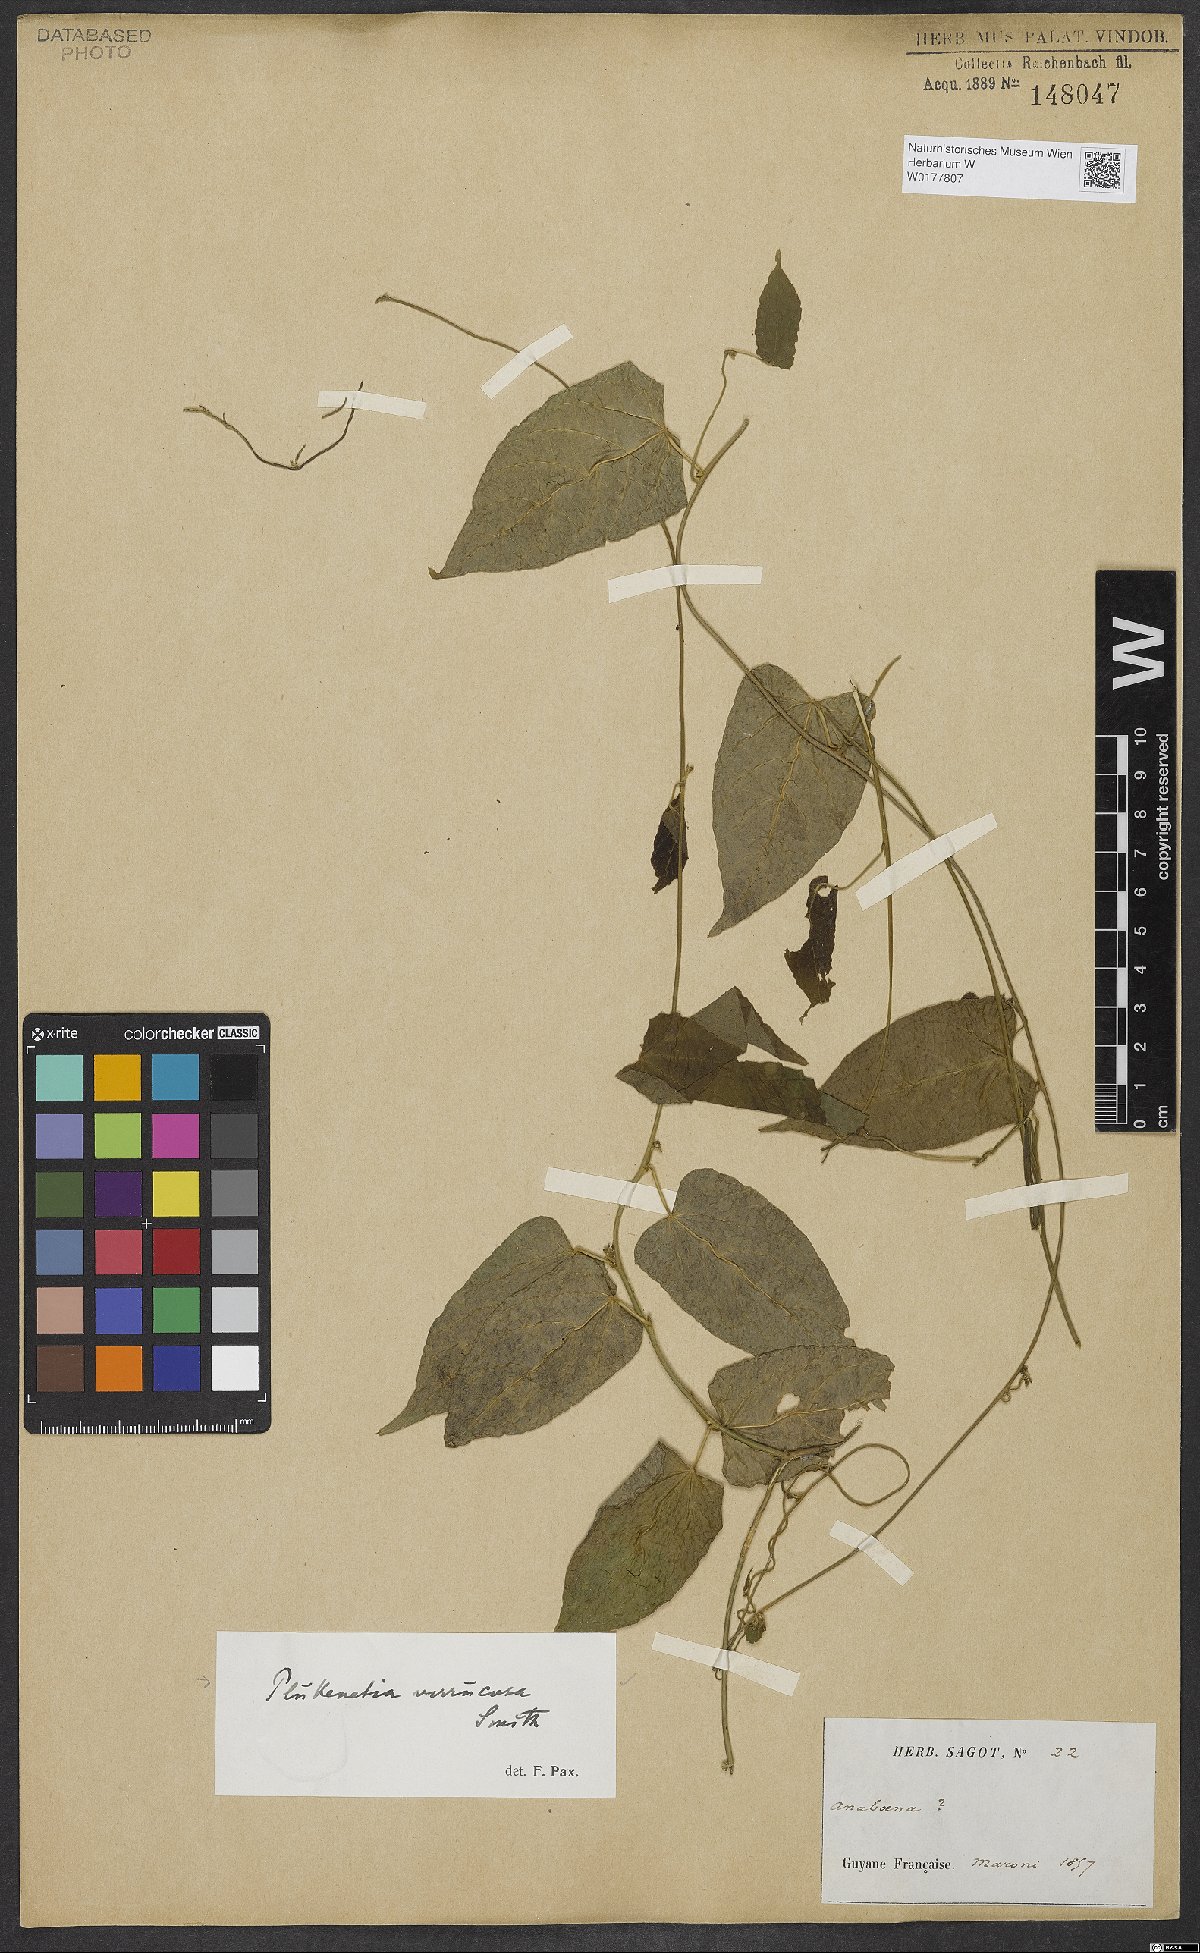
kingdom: Plantae
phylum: Tracheophyta
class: Magnoliopsida
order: Malpighiales
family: Euphorbiaceae
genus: Plukenetia
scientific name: Plukenetia verrucosa
